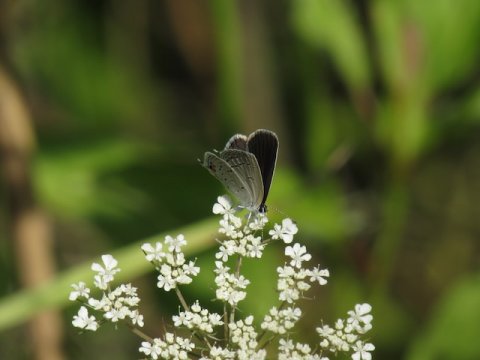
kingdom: Animalia
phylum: Arthropoda
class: Insecta
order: Lepidoptera
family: Lycaenidae
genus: Elkalyce
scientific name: Elkalyce comyntas
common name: Eastern Tailed-Blue
